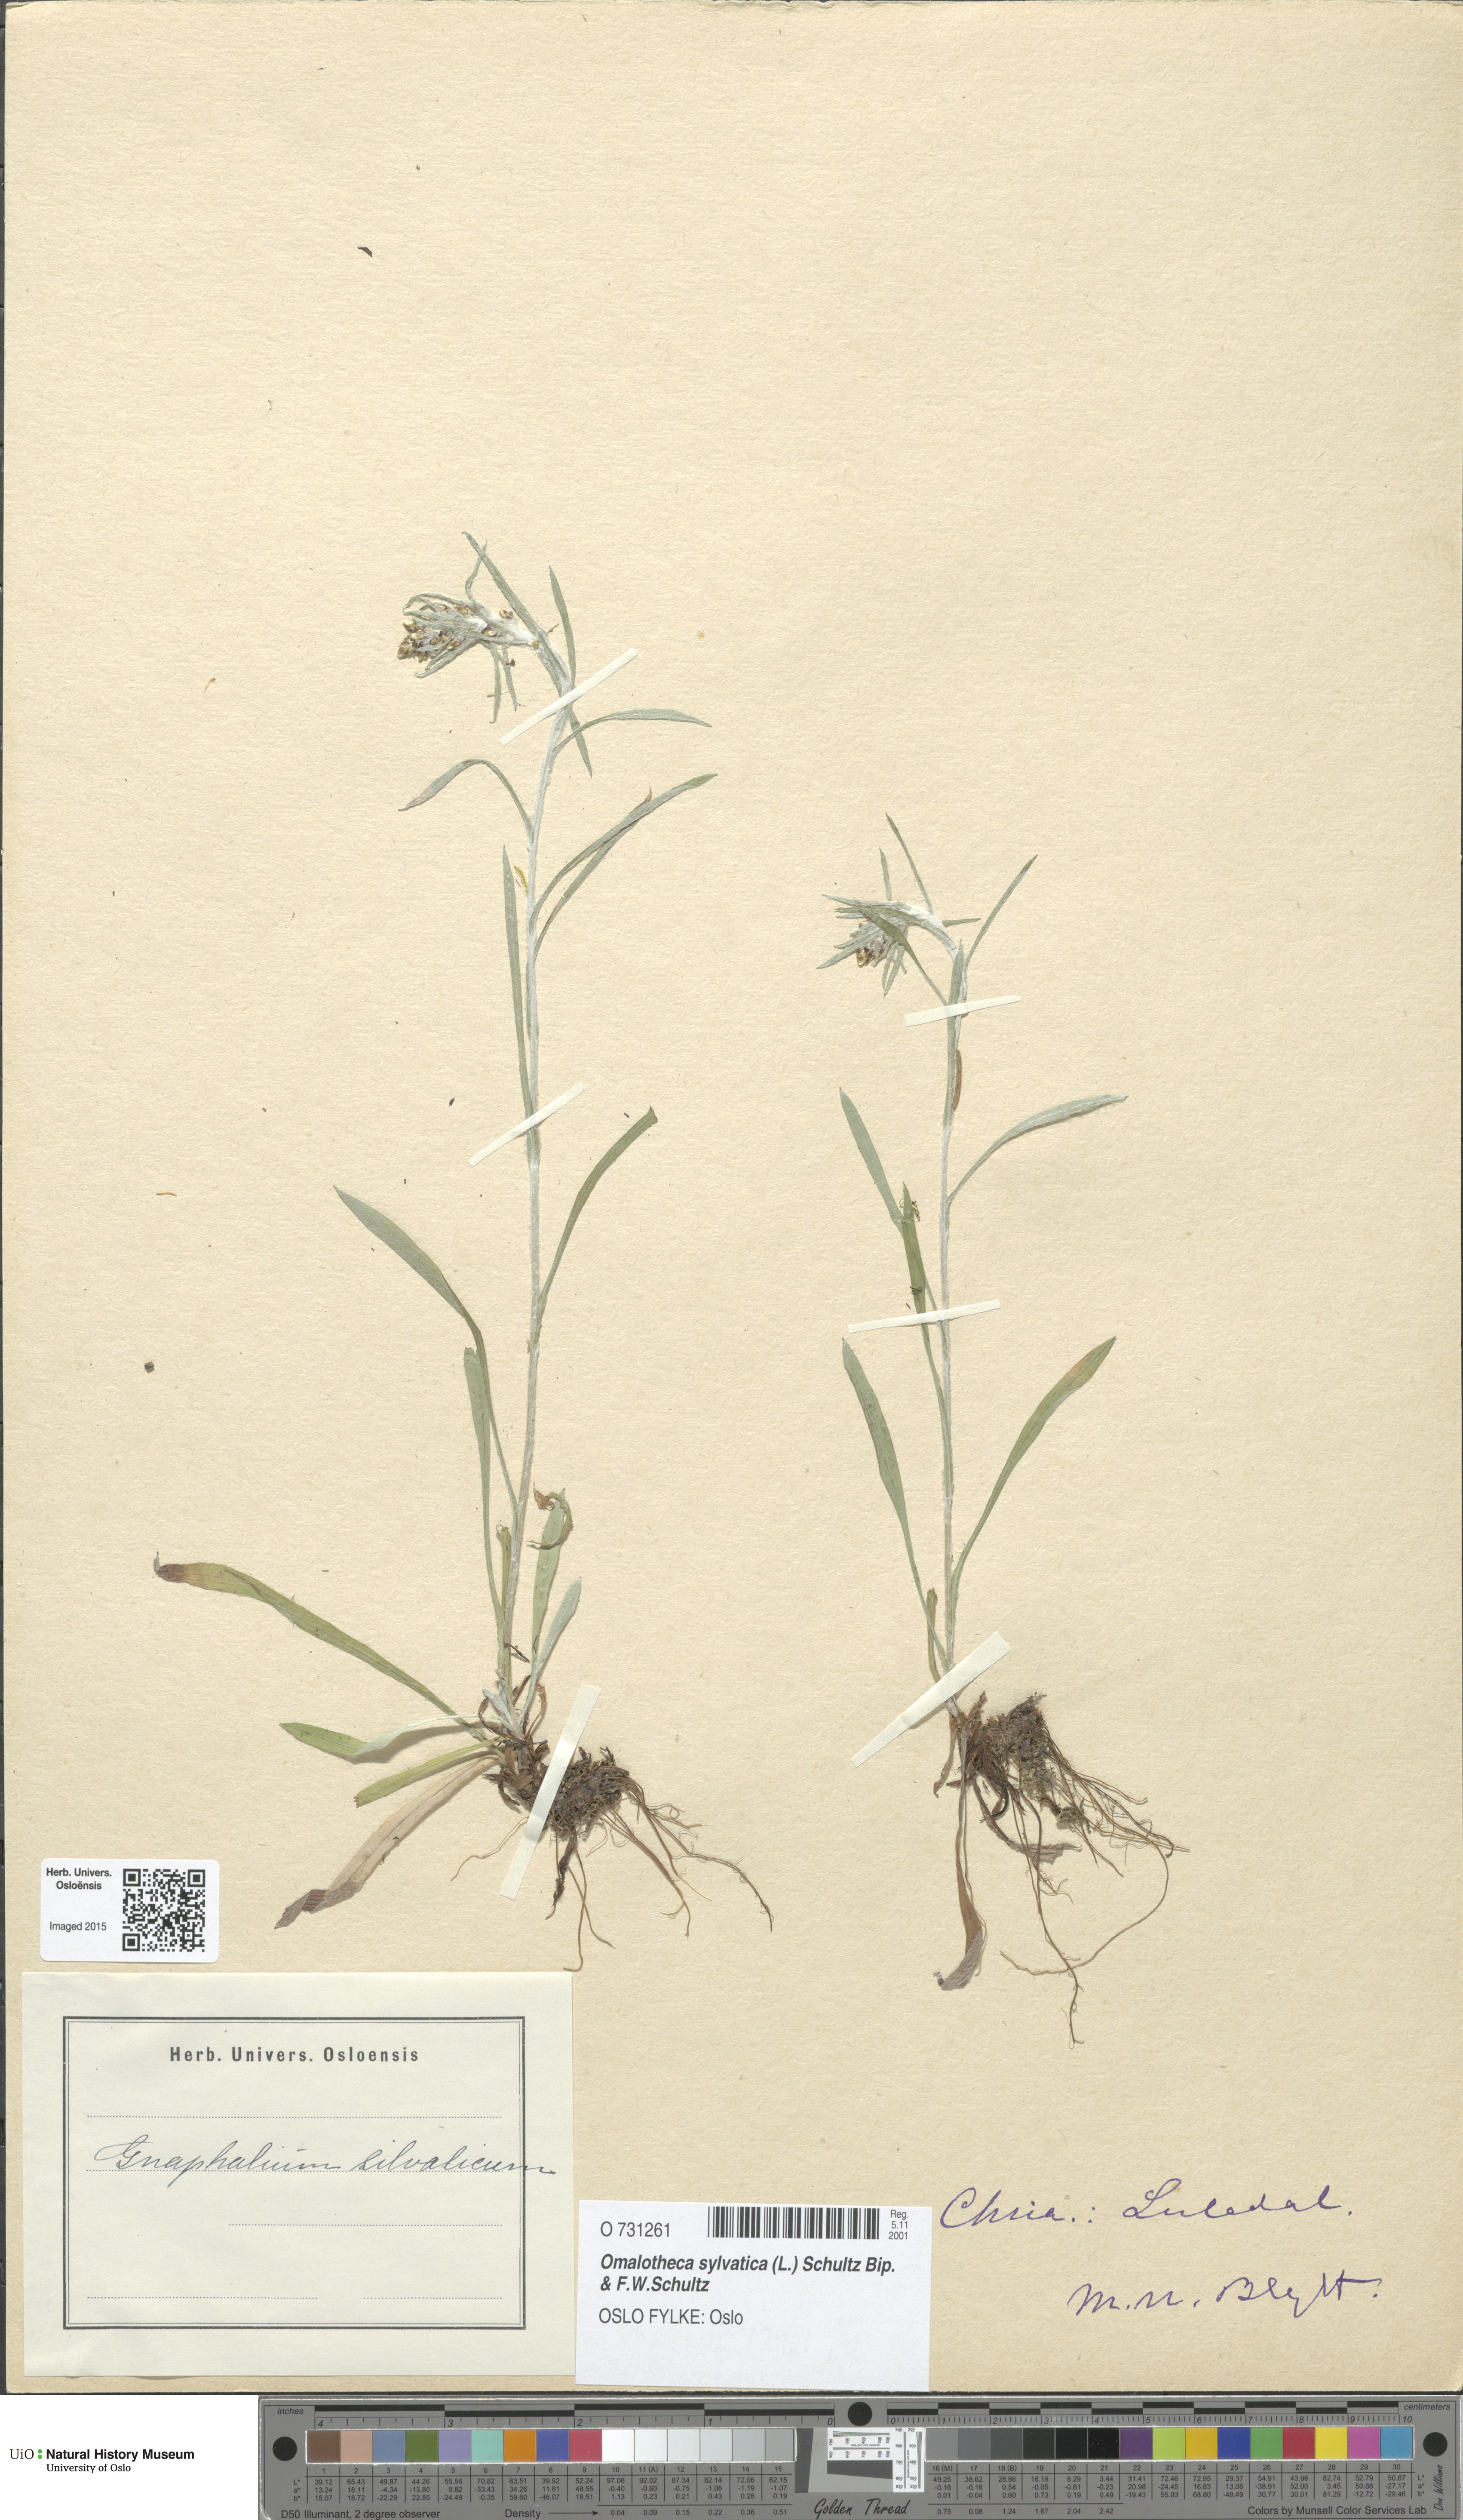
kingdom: Plantae
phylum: Tracheophyta
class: Magnoliopsida
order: Asterales
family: Asteraceae
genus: Omalotheca
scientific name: Omalotheca sylvatica
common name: Heath cudweed
